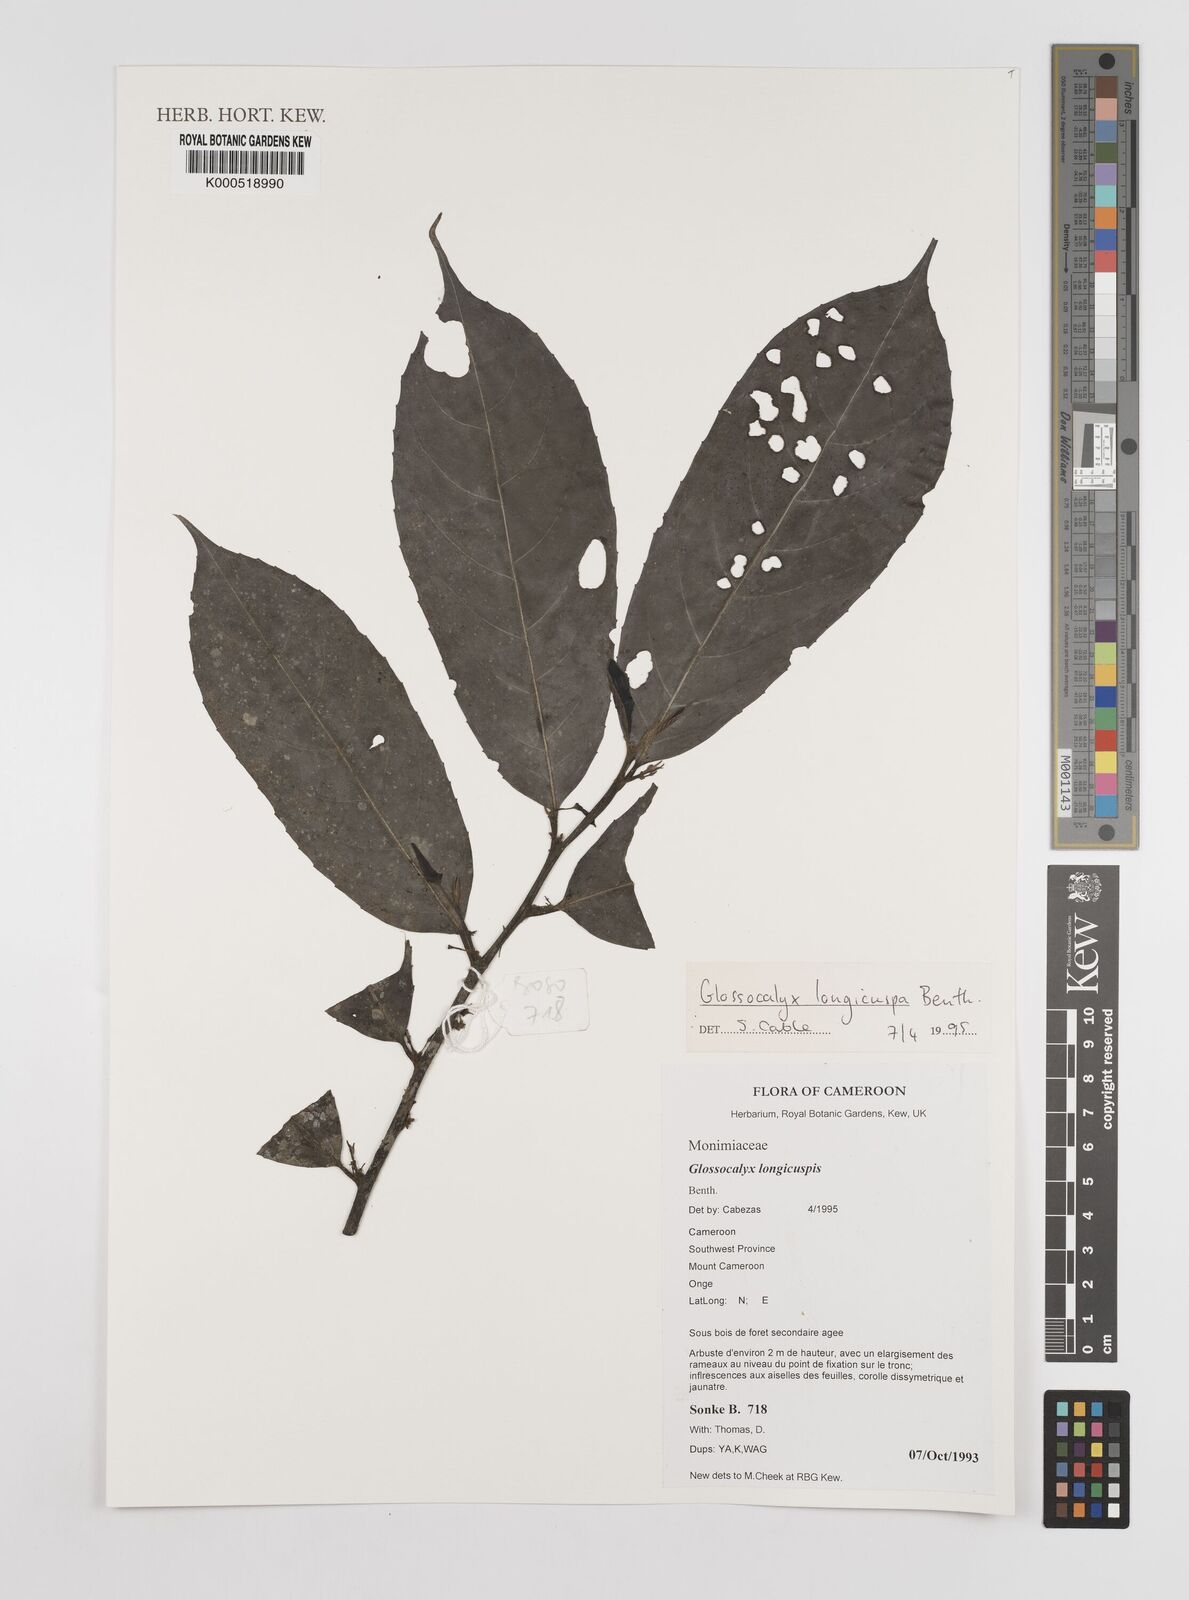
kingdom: Plantae
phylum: Tracheophyta
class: Magnoliopsida
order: Laurales
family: Siparunaceae
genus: Glossocalyx
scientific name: Glossocalyx longicuspis
